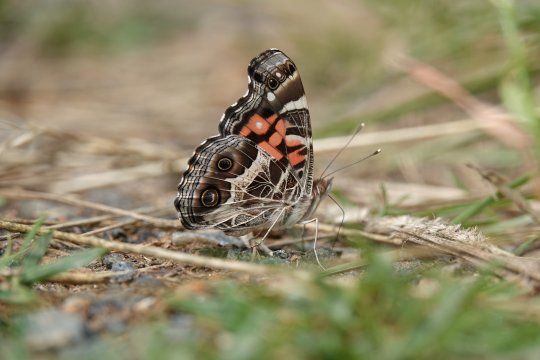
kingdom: Animalia
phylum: Arthropoda
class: Insecta
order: Lepidoptera
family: Nymphalidae
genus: Vanessa
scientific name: Vanessa virginiensis
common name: American Lady
